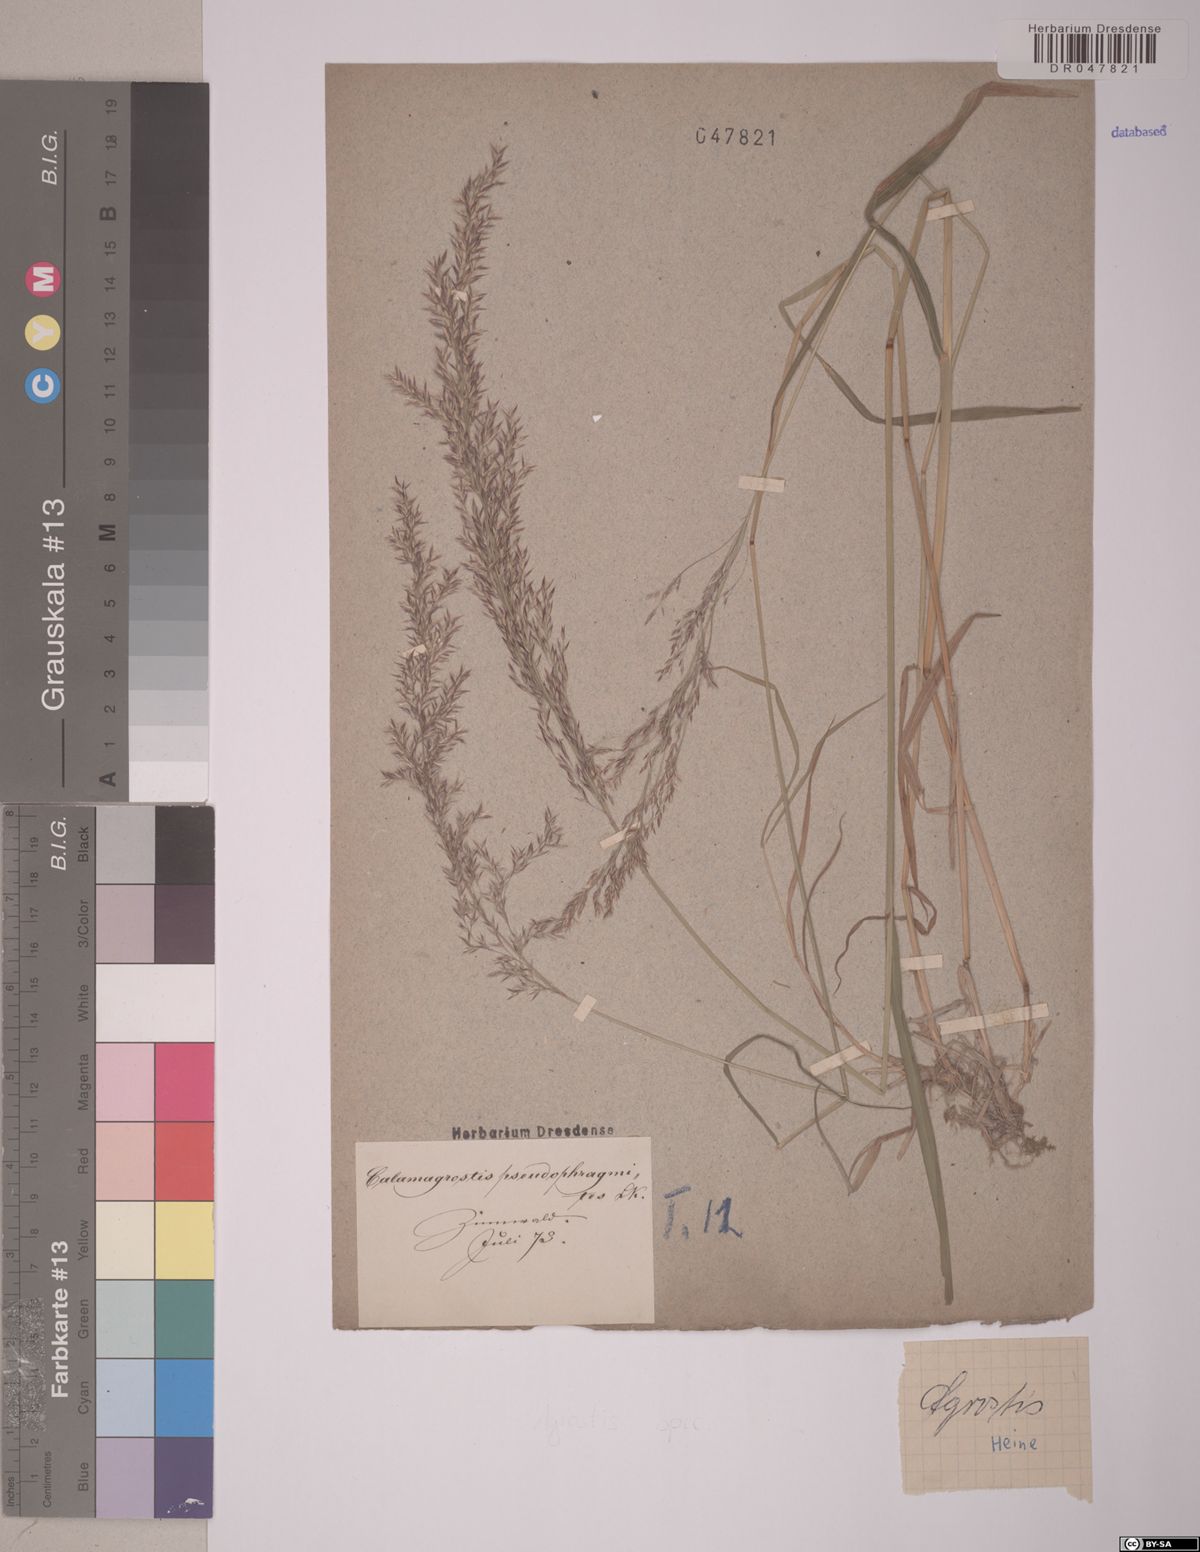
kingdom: Plantae
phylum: Tracheophyta
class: Liliopsida
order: Poales
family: Poaceae
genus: Agrostis
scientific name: Agrostis
